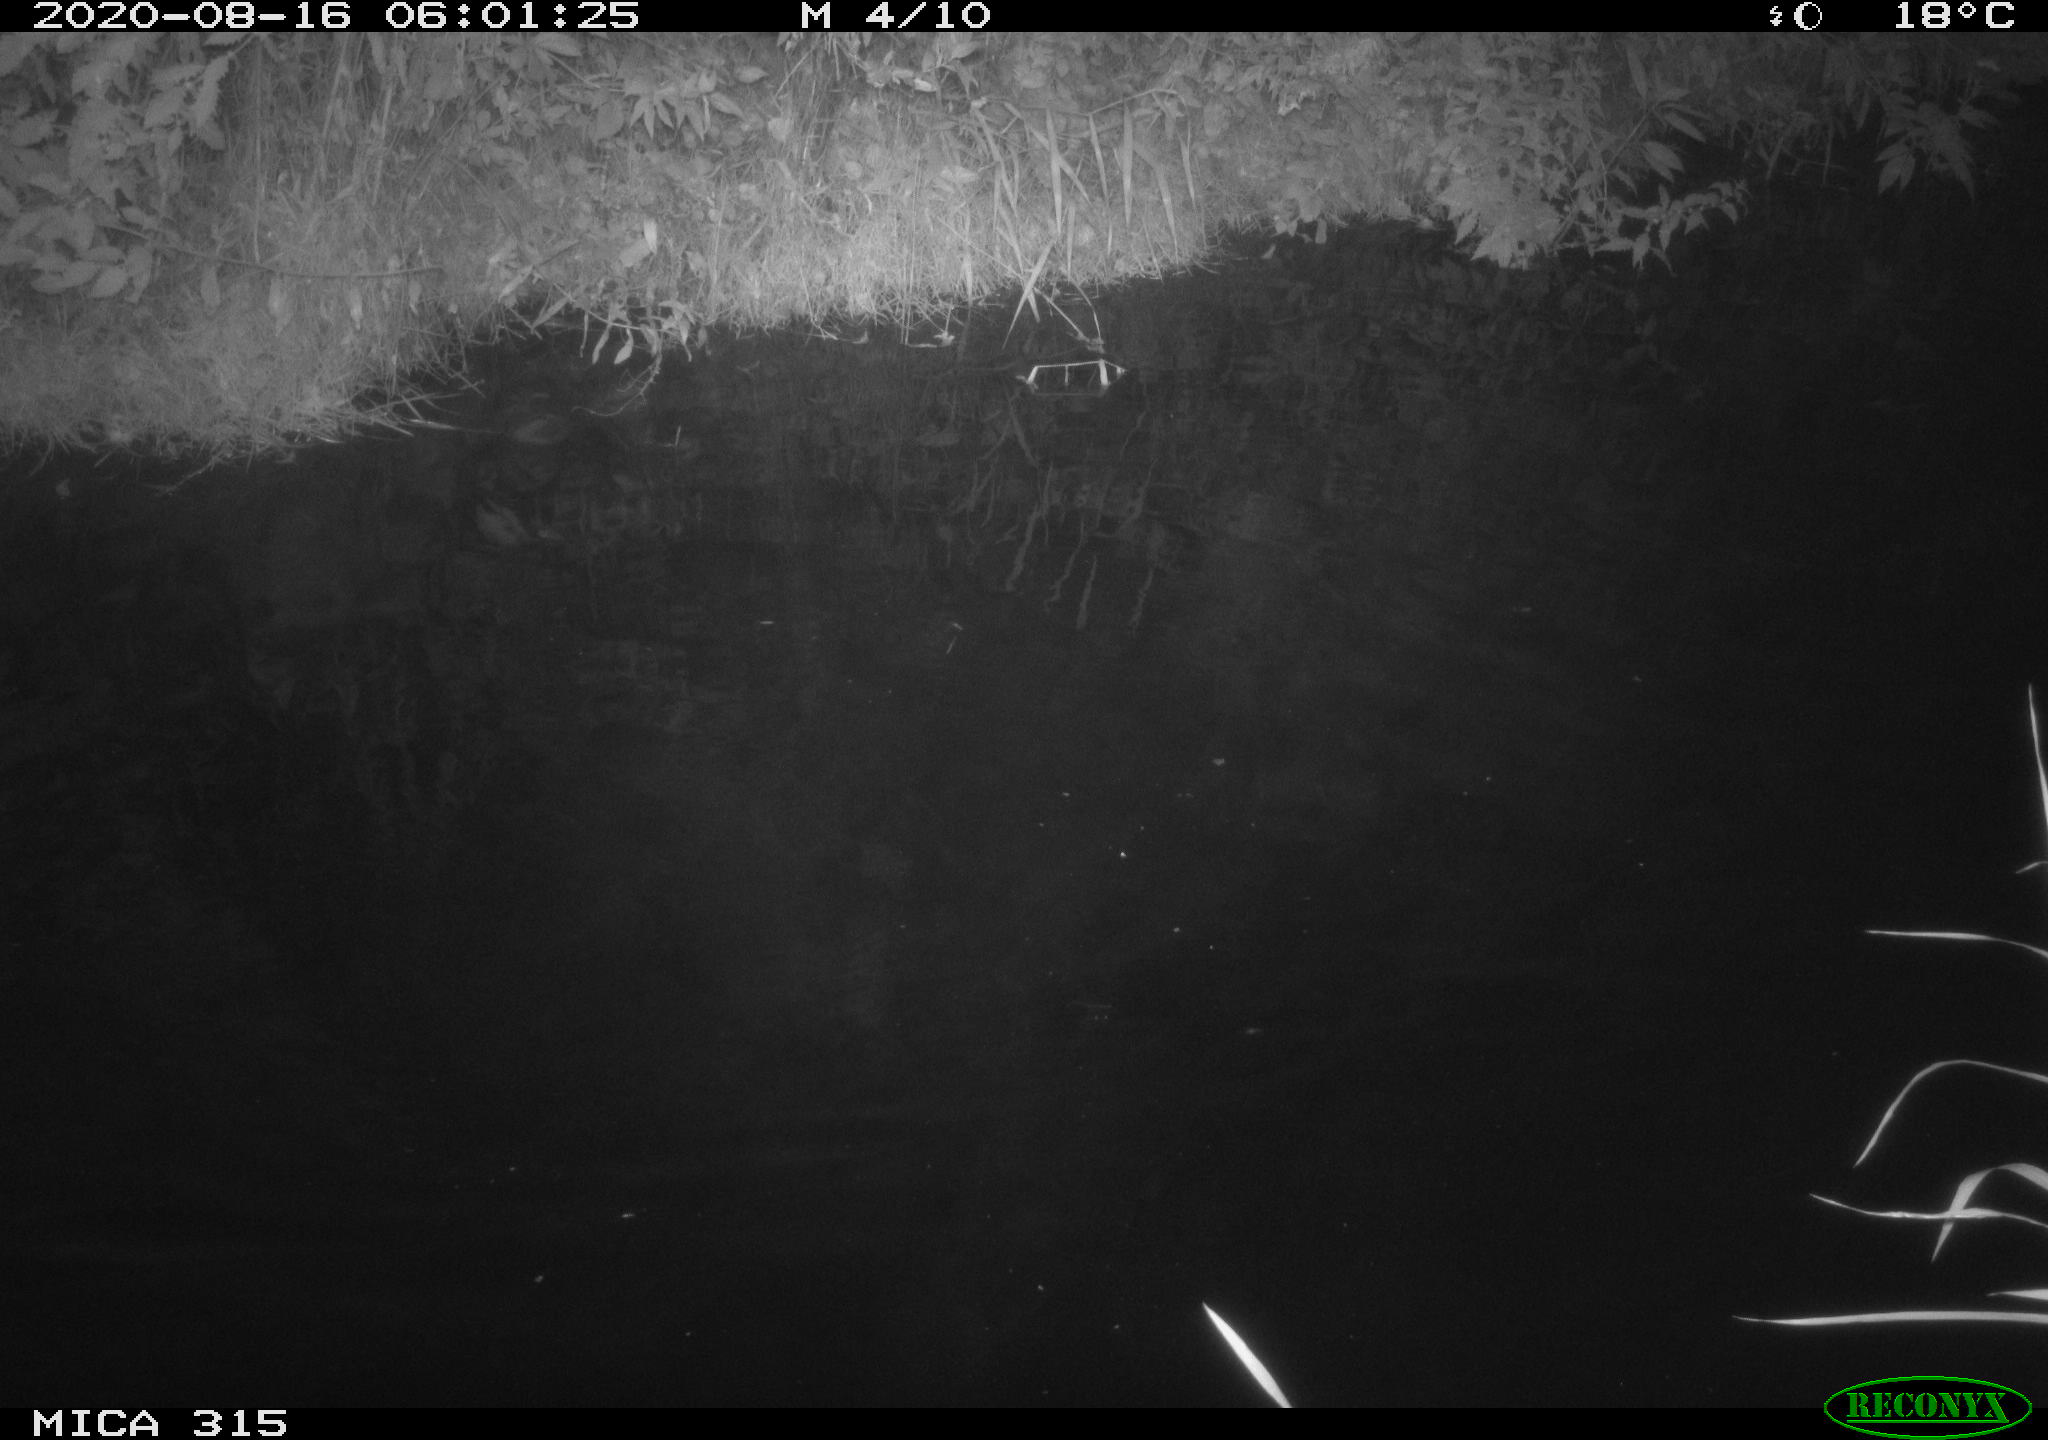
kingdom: Animalia
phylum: Chordata
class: Aves
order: Anseriformes
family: Anatidae
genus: Anas
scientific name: Anas platyrhynchos
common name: Mallard
